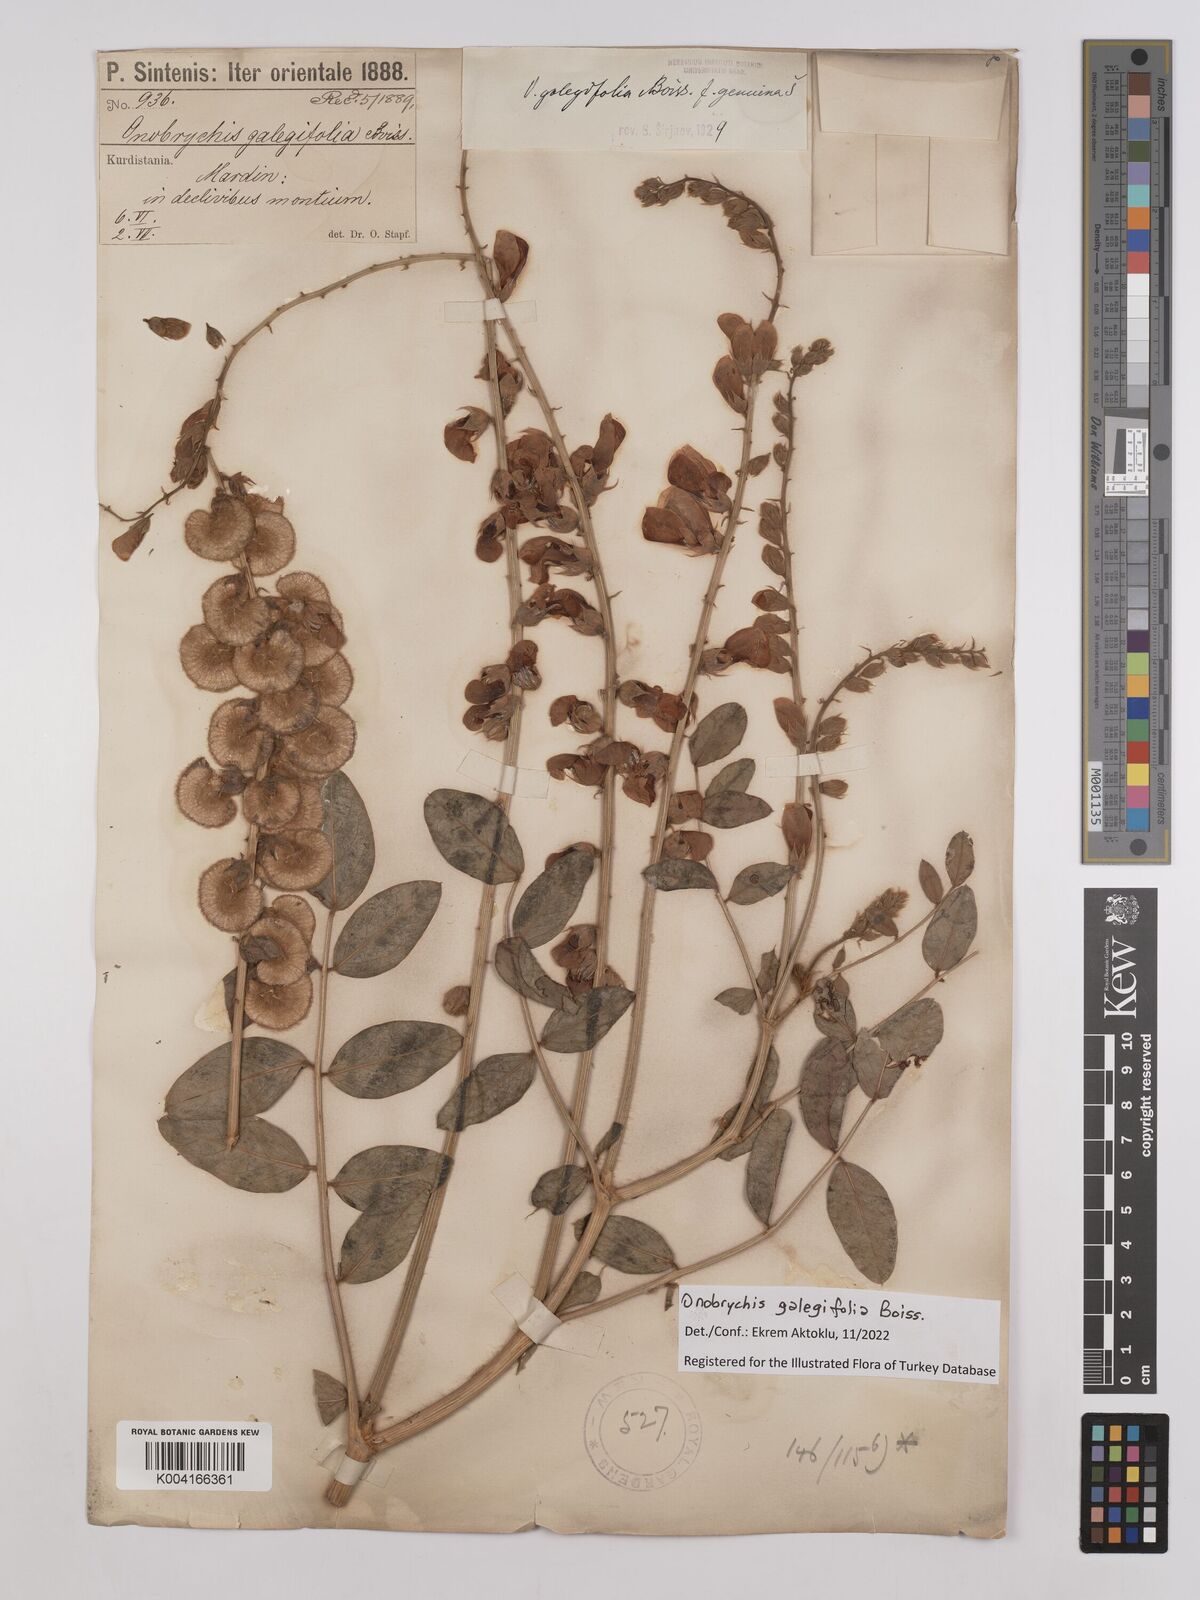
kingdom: Plantae
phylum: Tracheophyta
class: Magnoliopsida
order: Fabales
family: Fabaceae
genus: Onobrychis
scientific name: Onobrychis galegifolia
